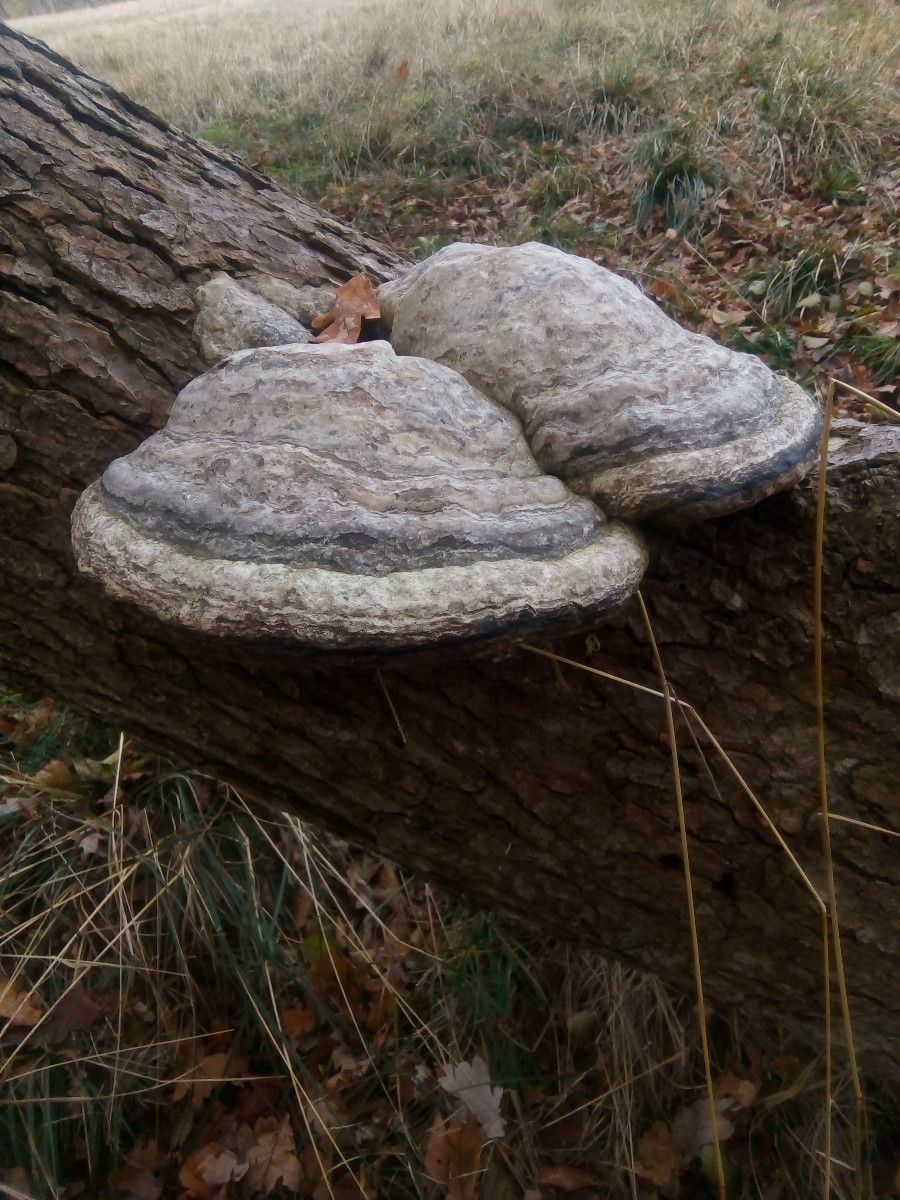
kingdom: Fungi
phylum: Basidiomycota
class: Agaricomycetes
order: Polyporales
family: Polyporaceae
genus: Fomes
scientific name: Fomes fomentarius
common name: tøndersvamp
